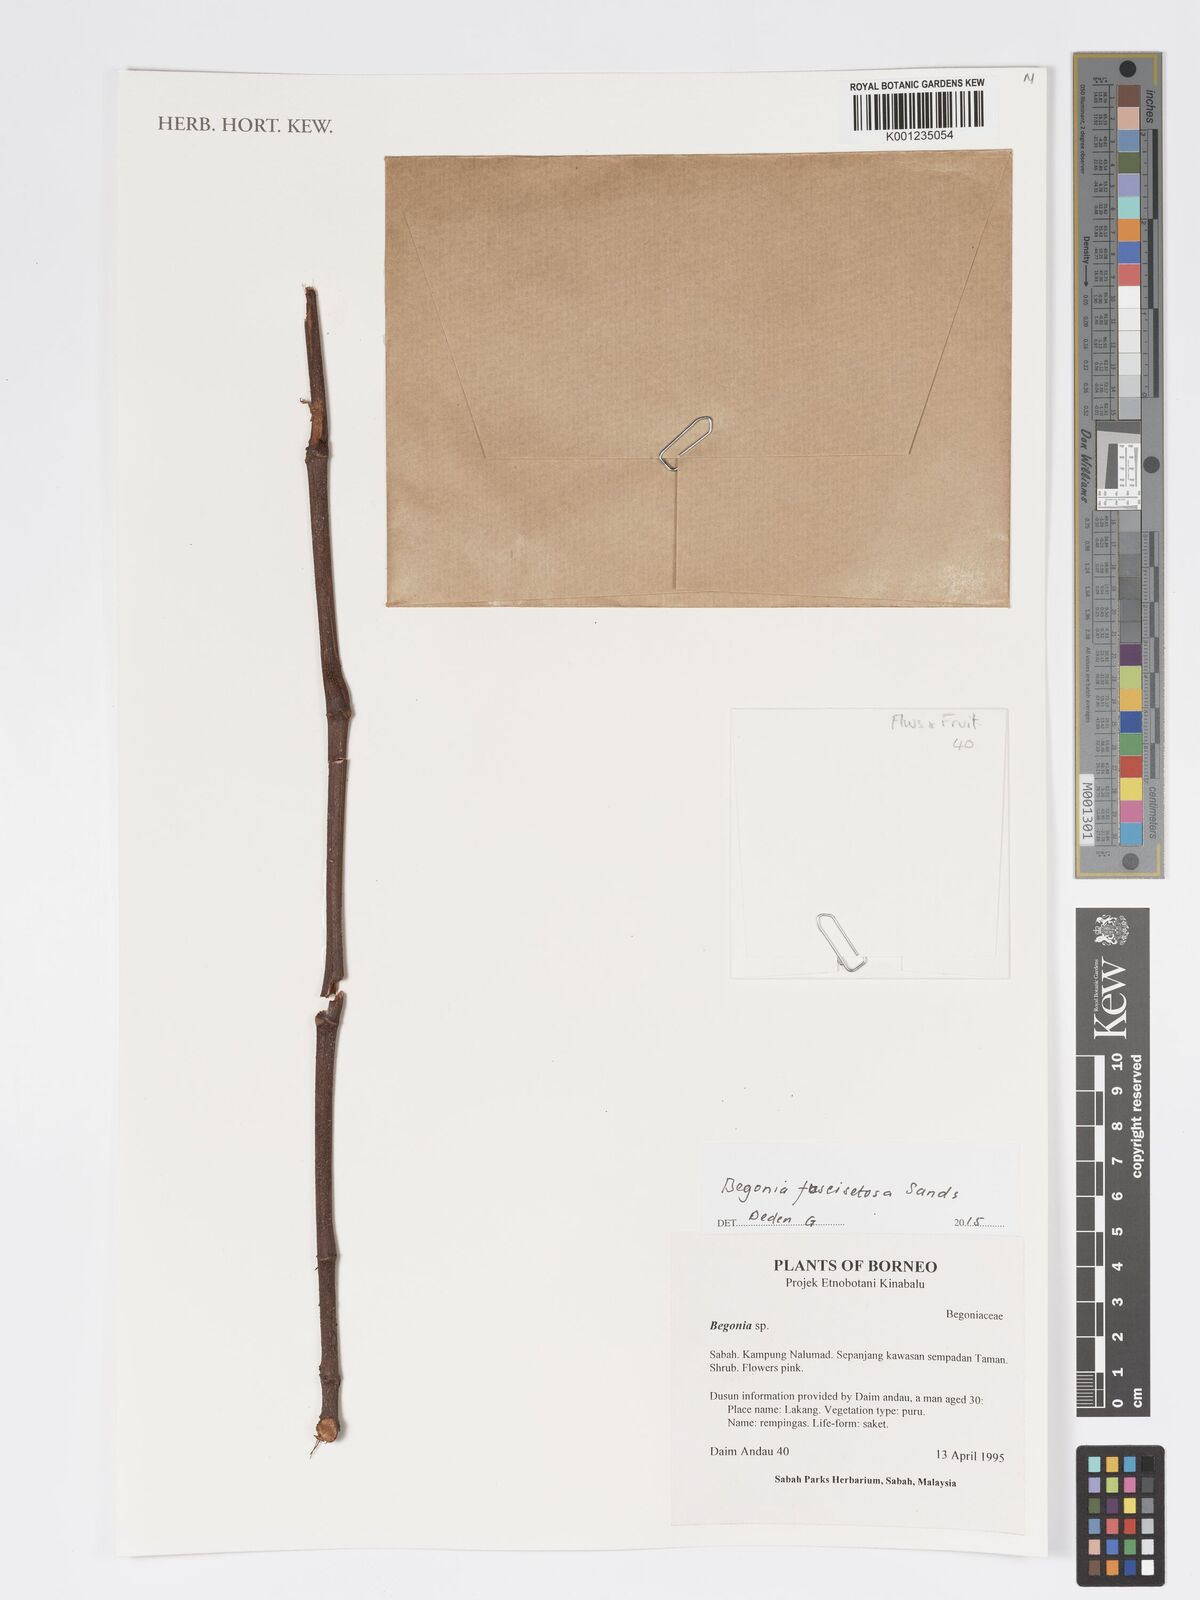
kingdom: Plantae
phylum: Tracheophyta
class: Magnoliopsida
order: Cucurbitales
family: Begoniaceae
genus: Begonia
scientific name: Begonia fuscisetosa
